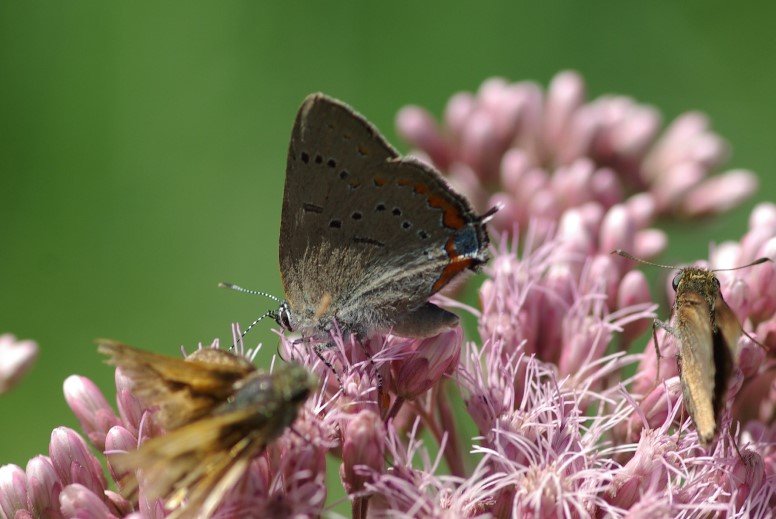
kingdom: Animalia
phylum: Arthropoda
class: Insecta
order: Lepidoptera
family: Lycaenidae
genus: Strymon
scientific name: Strymon acadica
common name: Acadian Hairstreak
